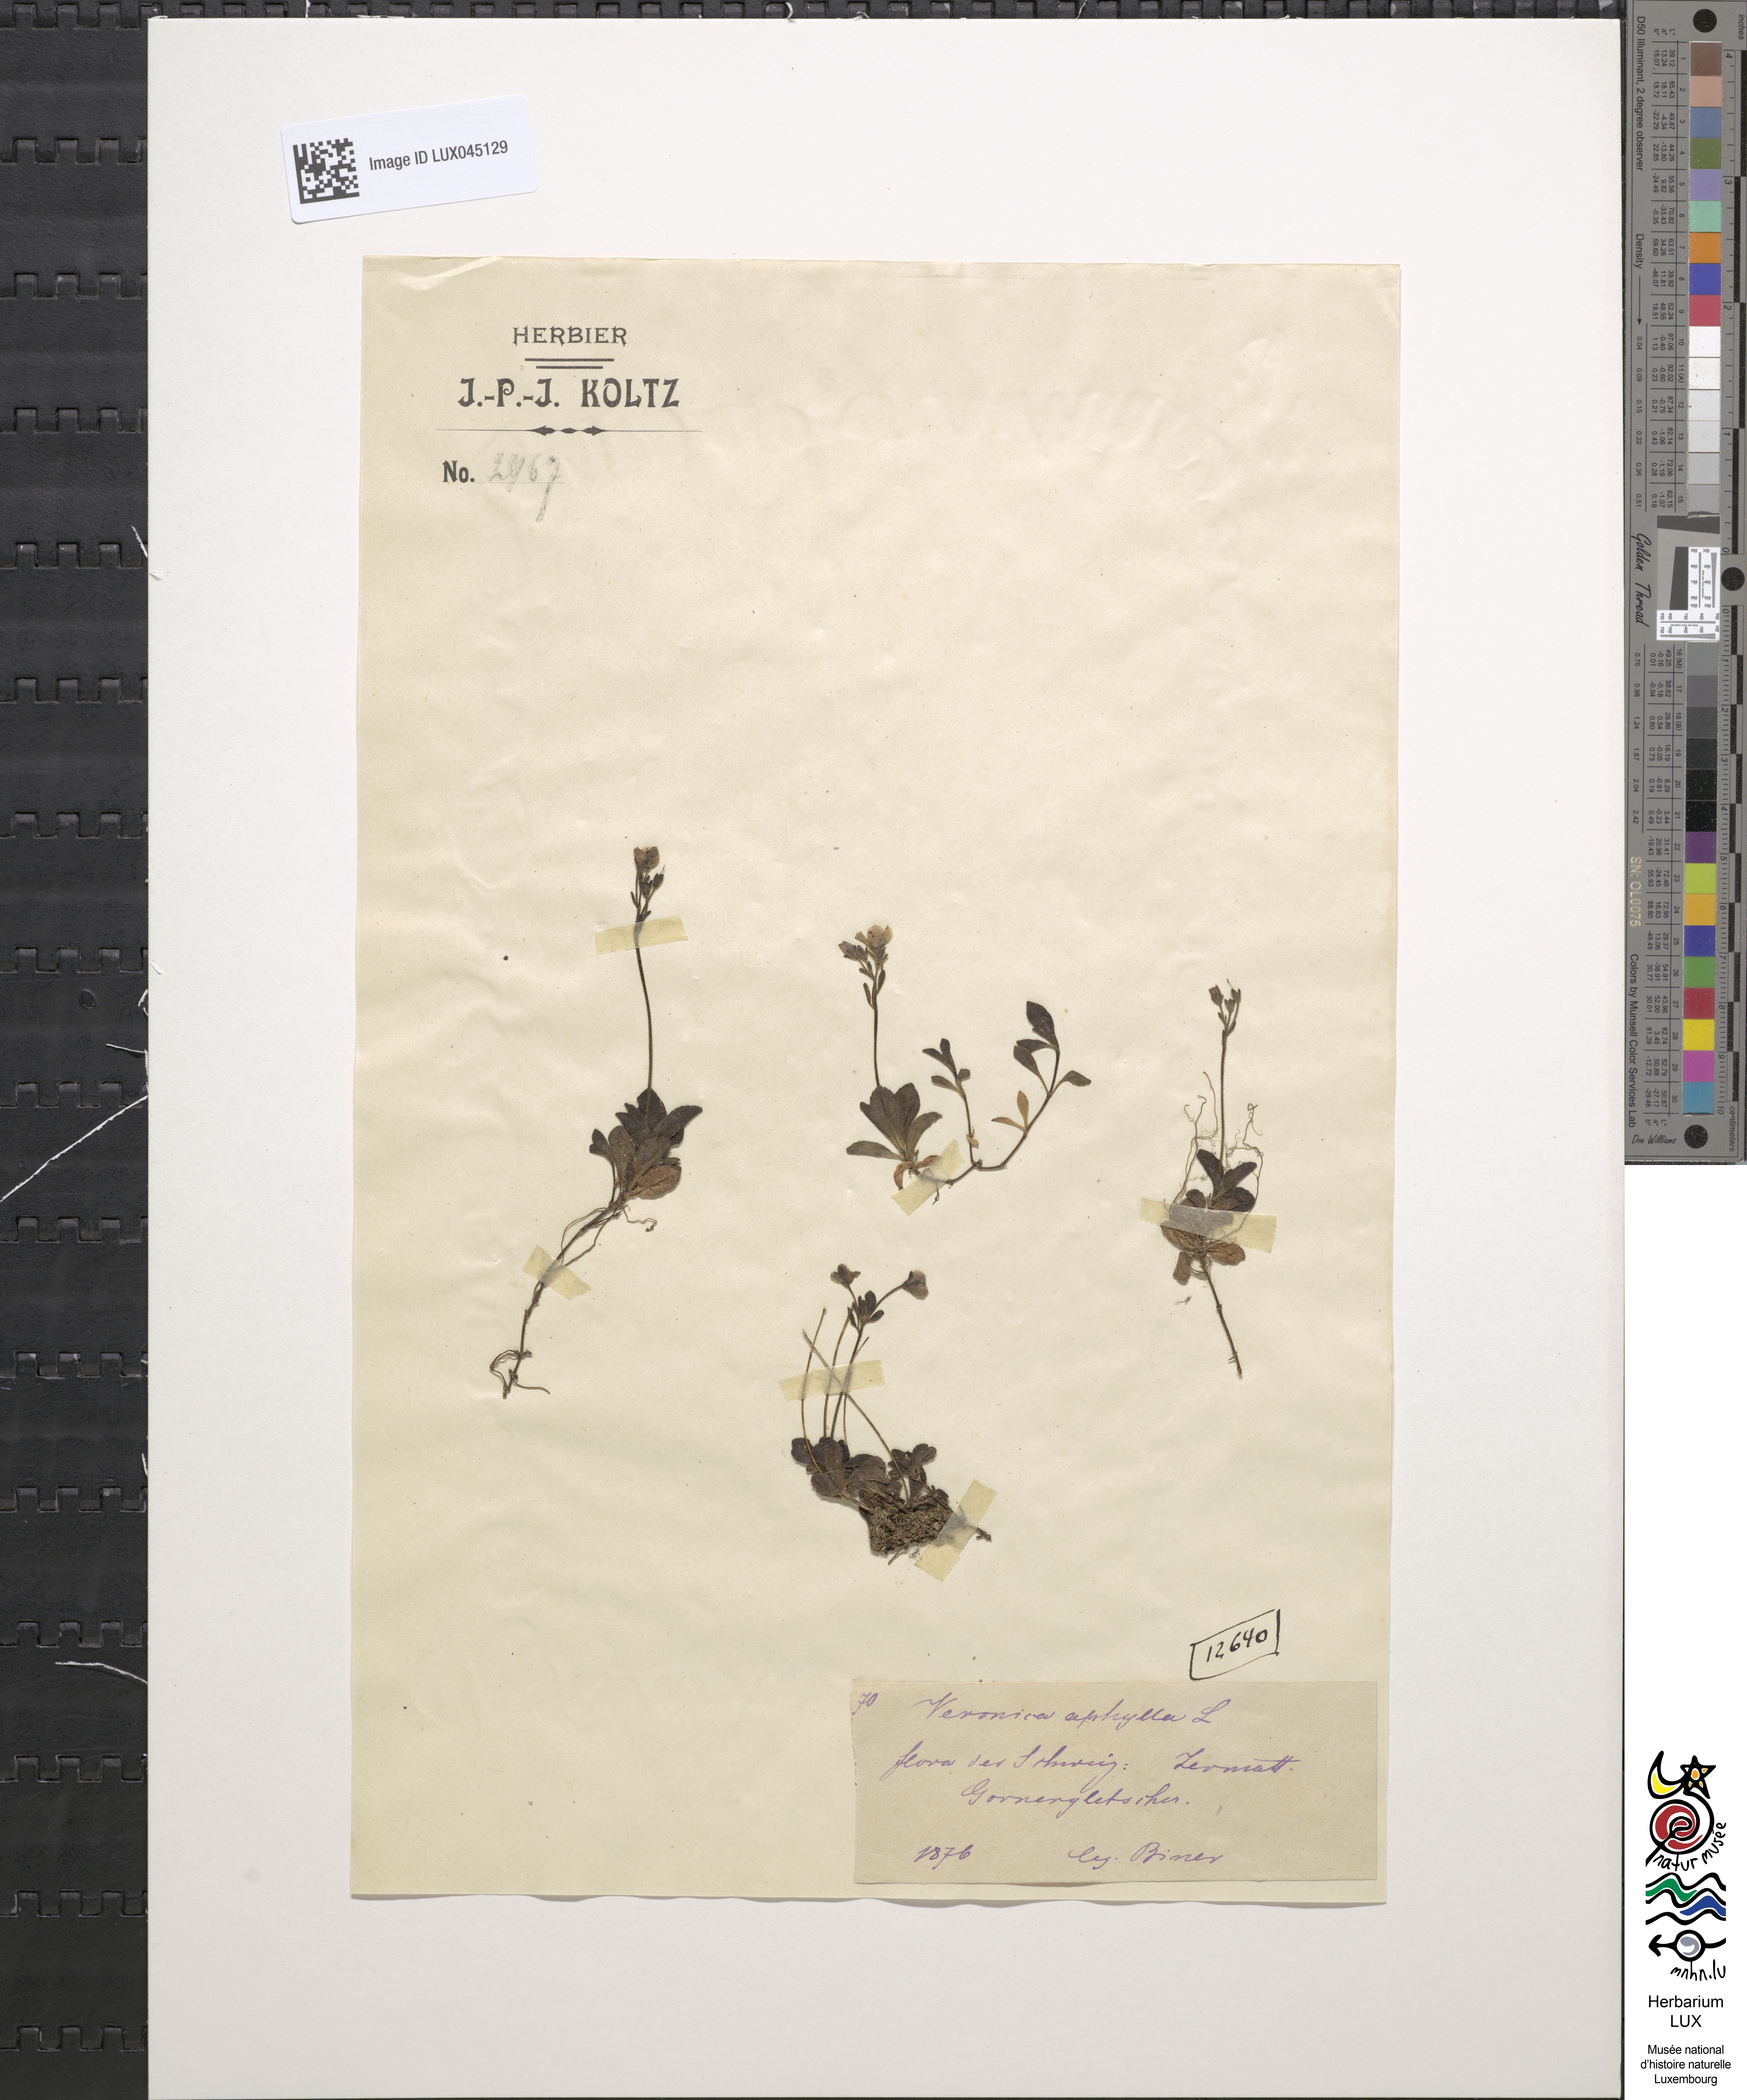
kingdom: Plantae
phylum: Tracheophyta
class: Magnoliopsida
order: Lamiales
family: Plantaginaceae
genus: Veronica
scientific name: Veronica aphylla
